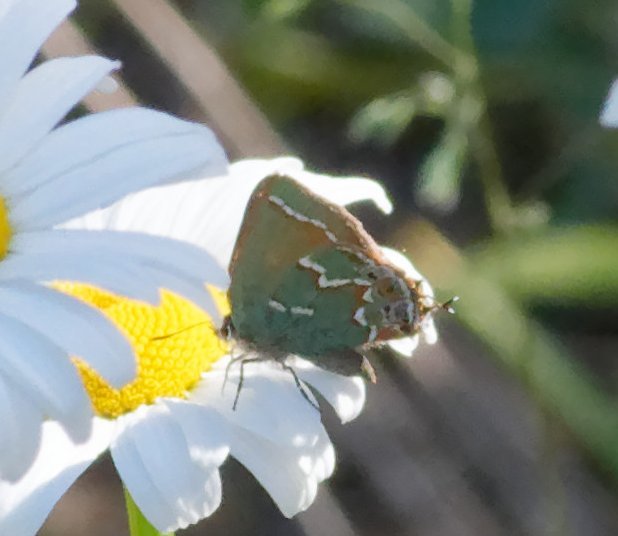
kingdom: Animalia
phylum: Arthropoda
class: Insecta
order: Lepidoptera
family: Lycaenidae
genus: Mitoura
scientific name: Mitoura gryneus
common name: Juniper Hairstreak
